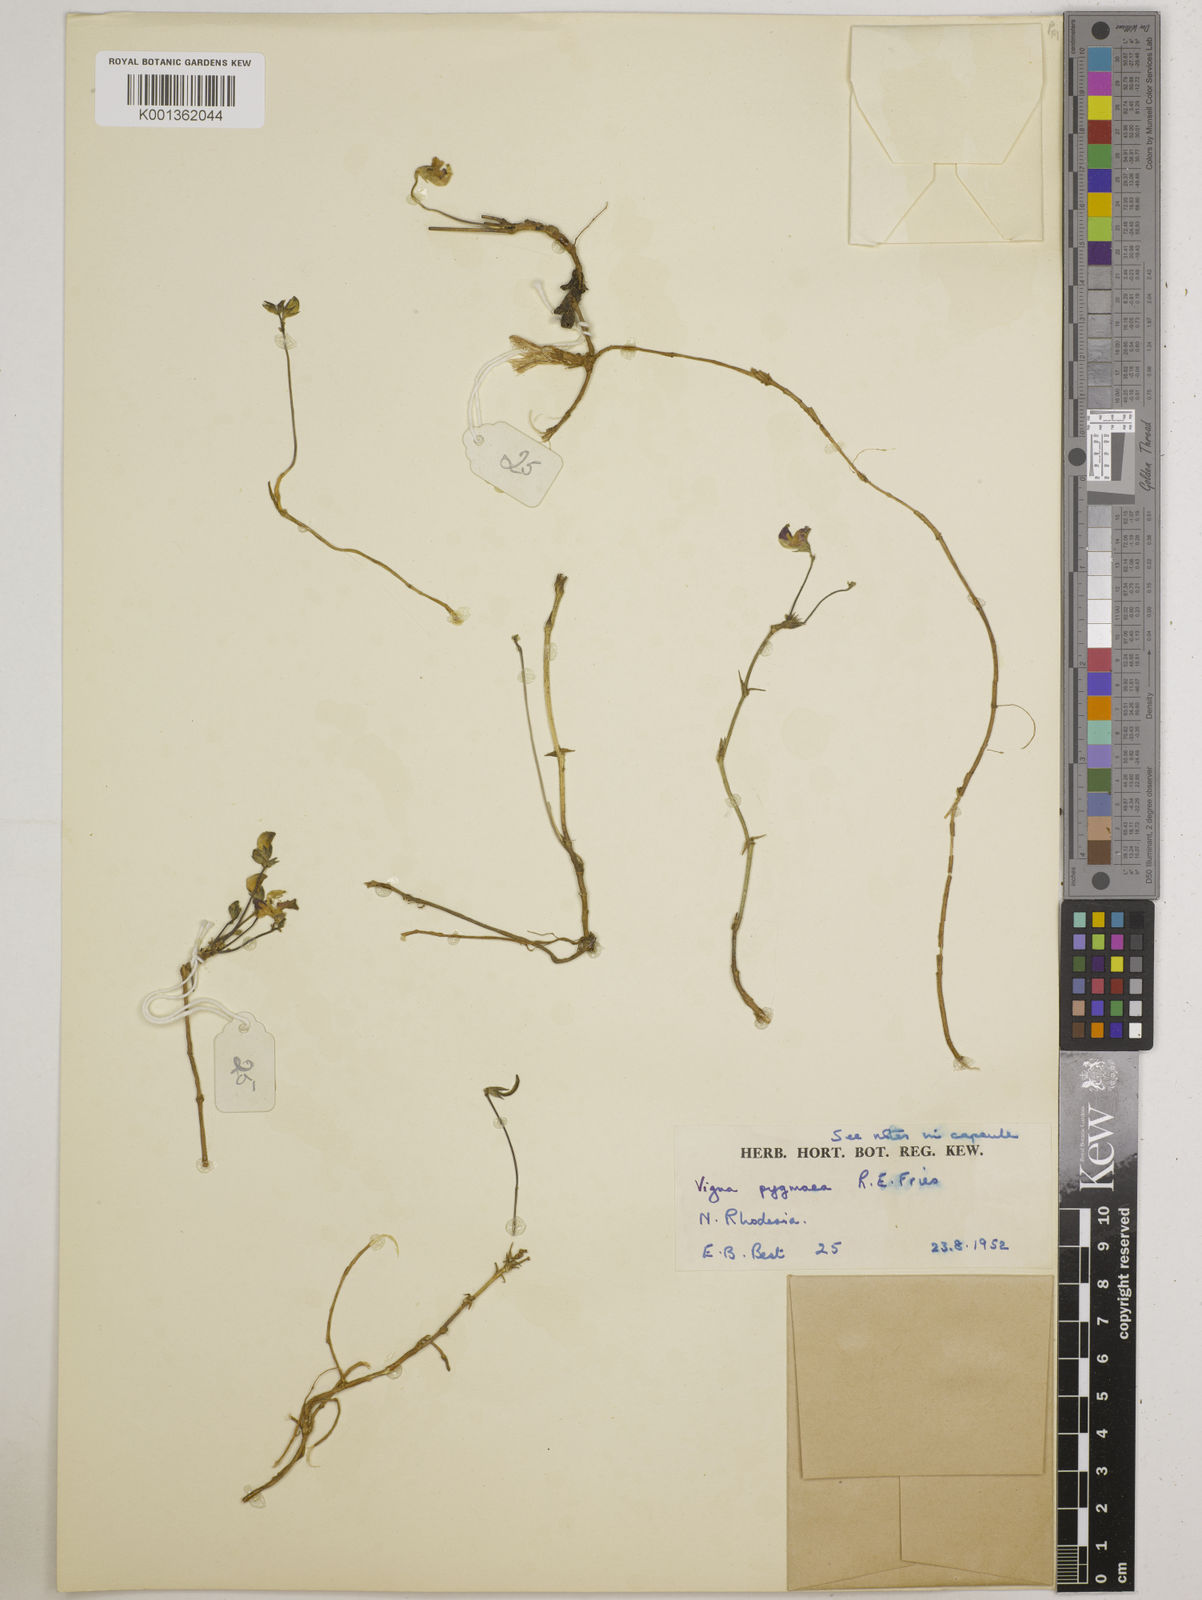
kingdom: Plantae
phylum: Tracheophyta
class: Magnoliopsida
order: Fabales
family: Fabaceae
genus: Vigna
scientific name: Vigna pygmaea
